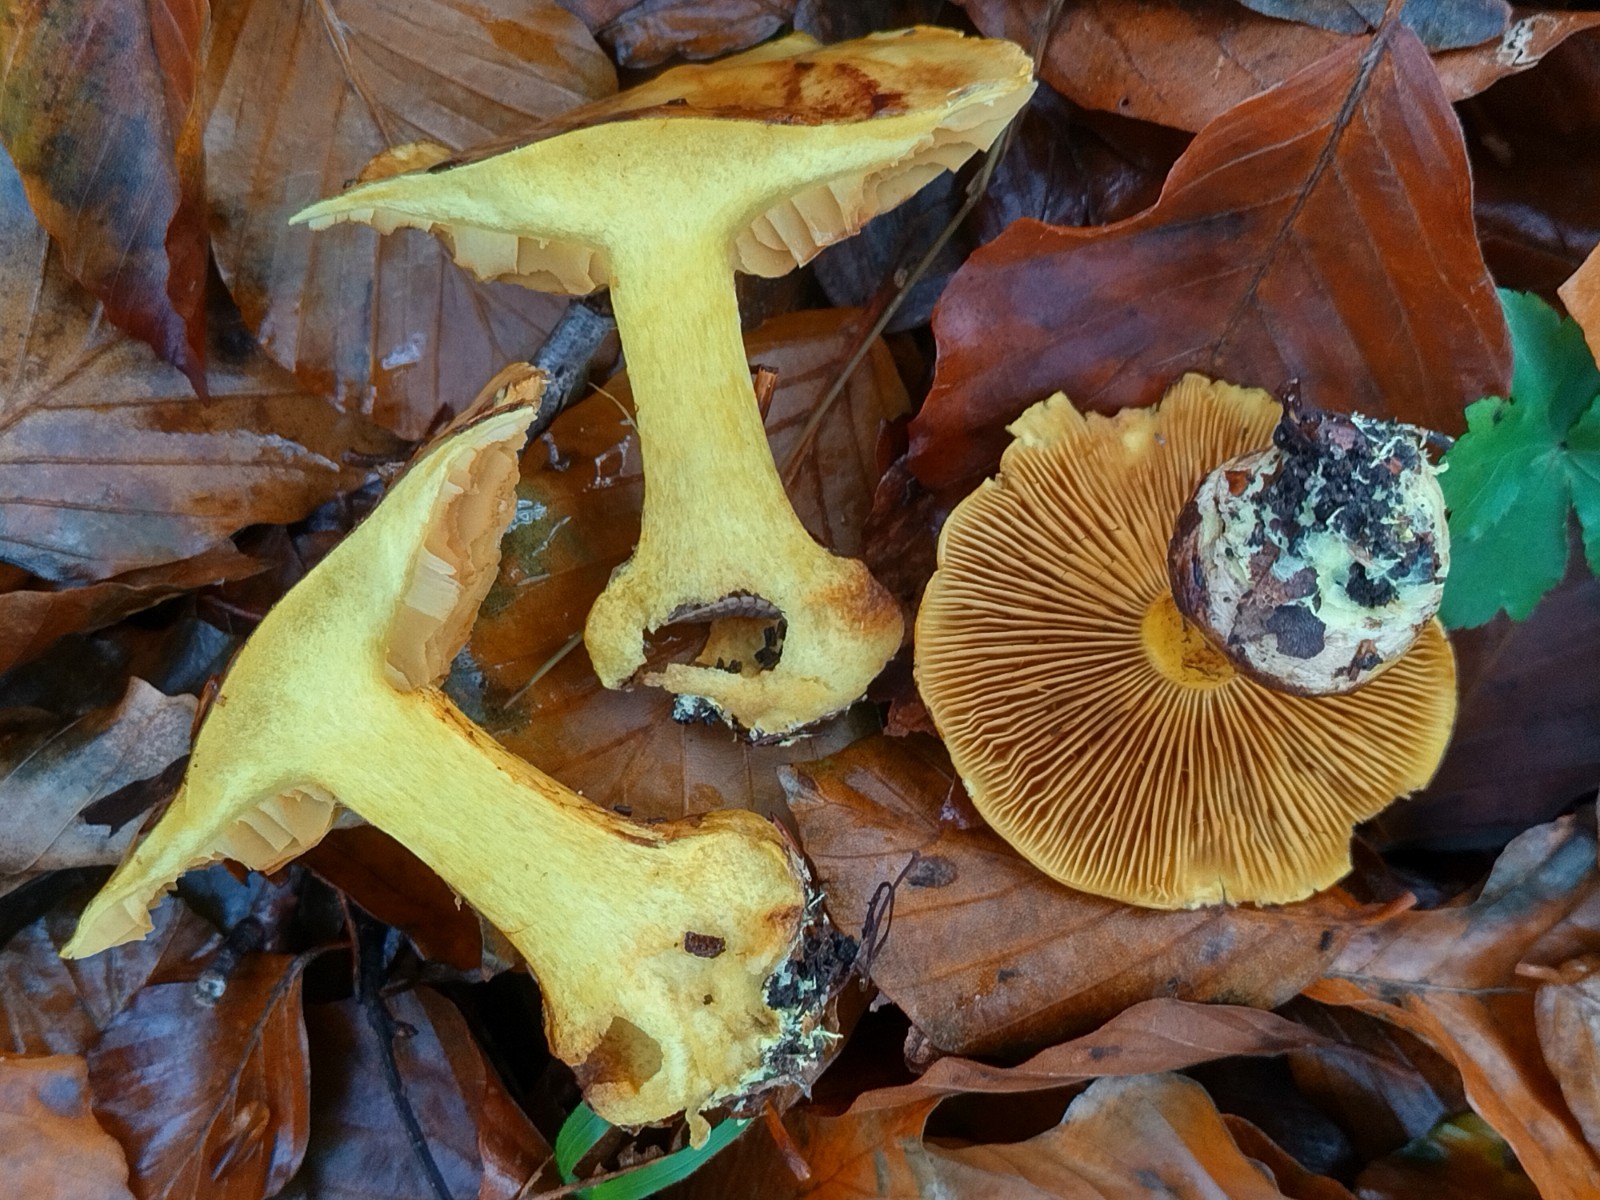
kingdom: Fungi
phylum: Basidiomycota
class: Agaricomycetes
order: Agaricales
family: Cortinariaceae
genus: Calonarius
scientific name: Calonarius splendens
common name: sirene-slørhat
